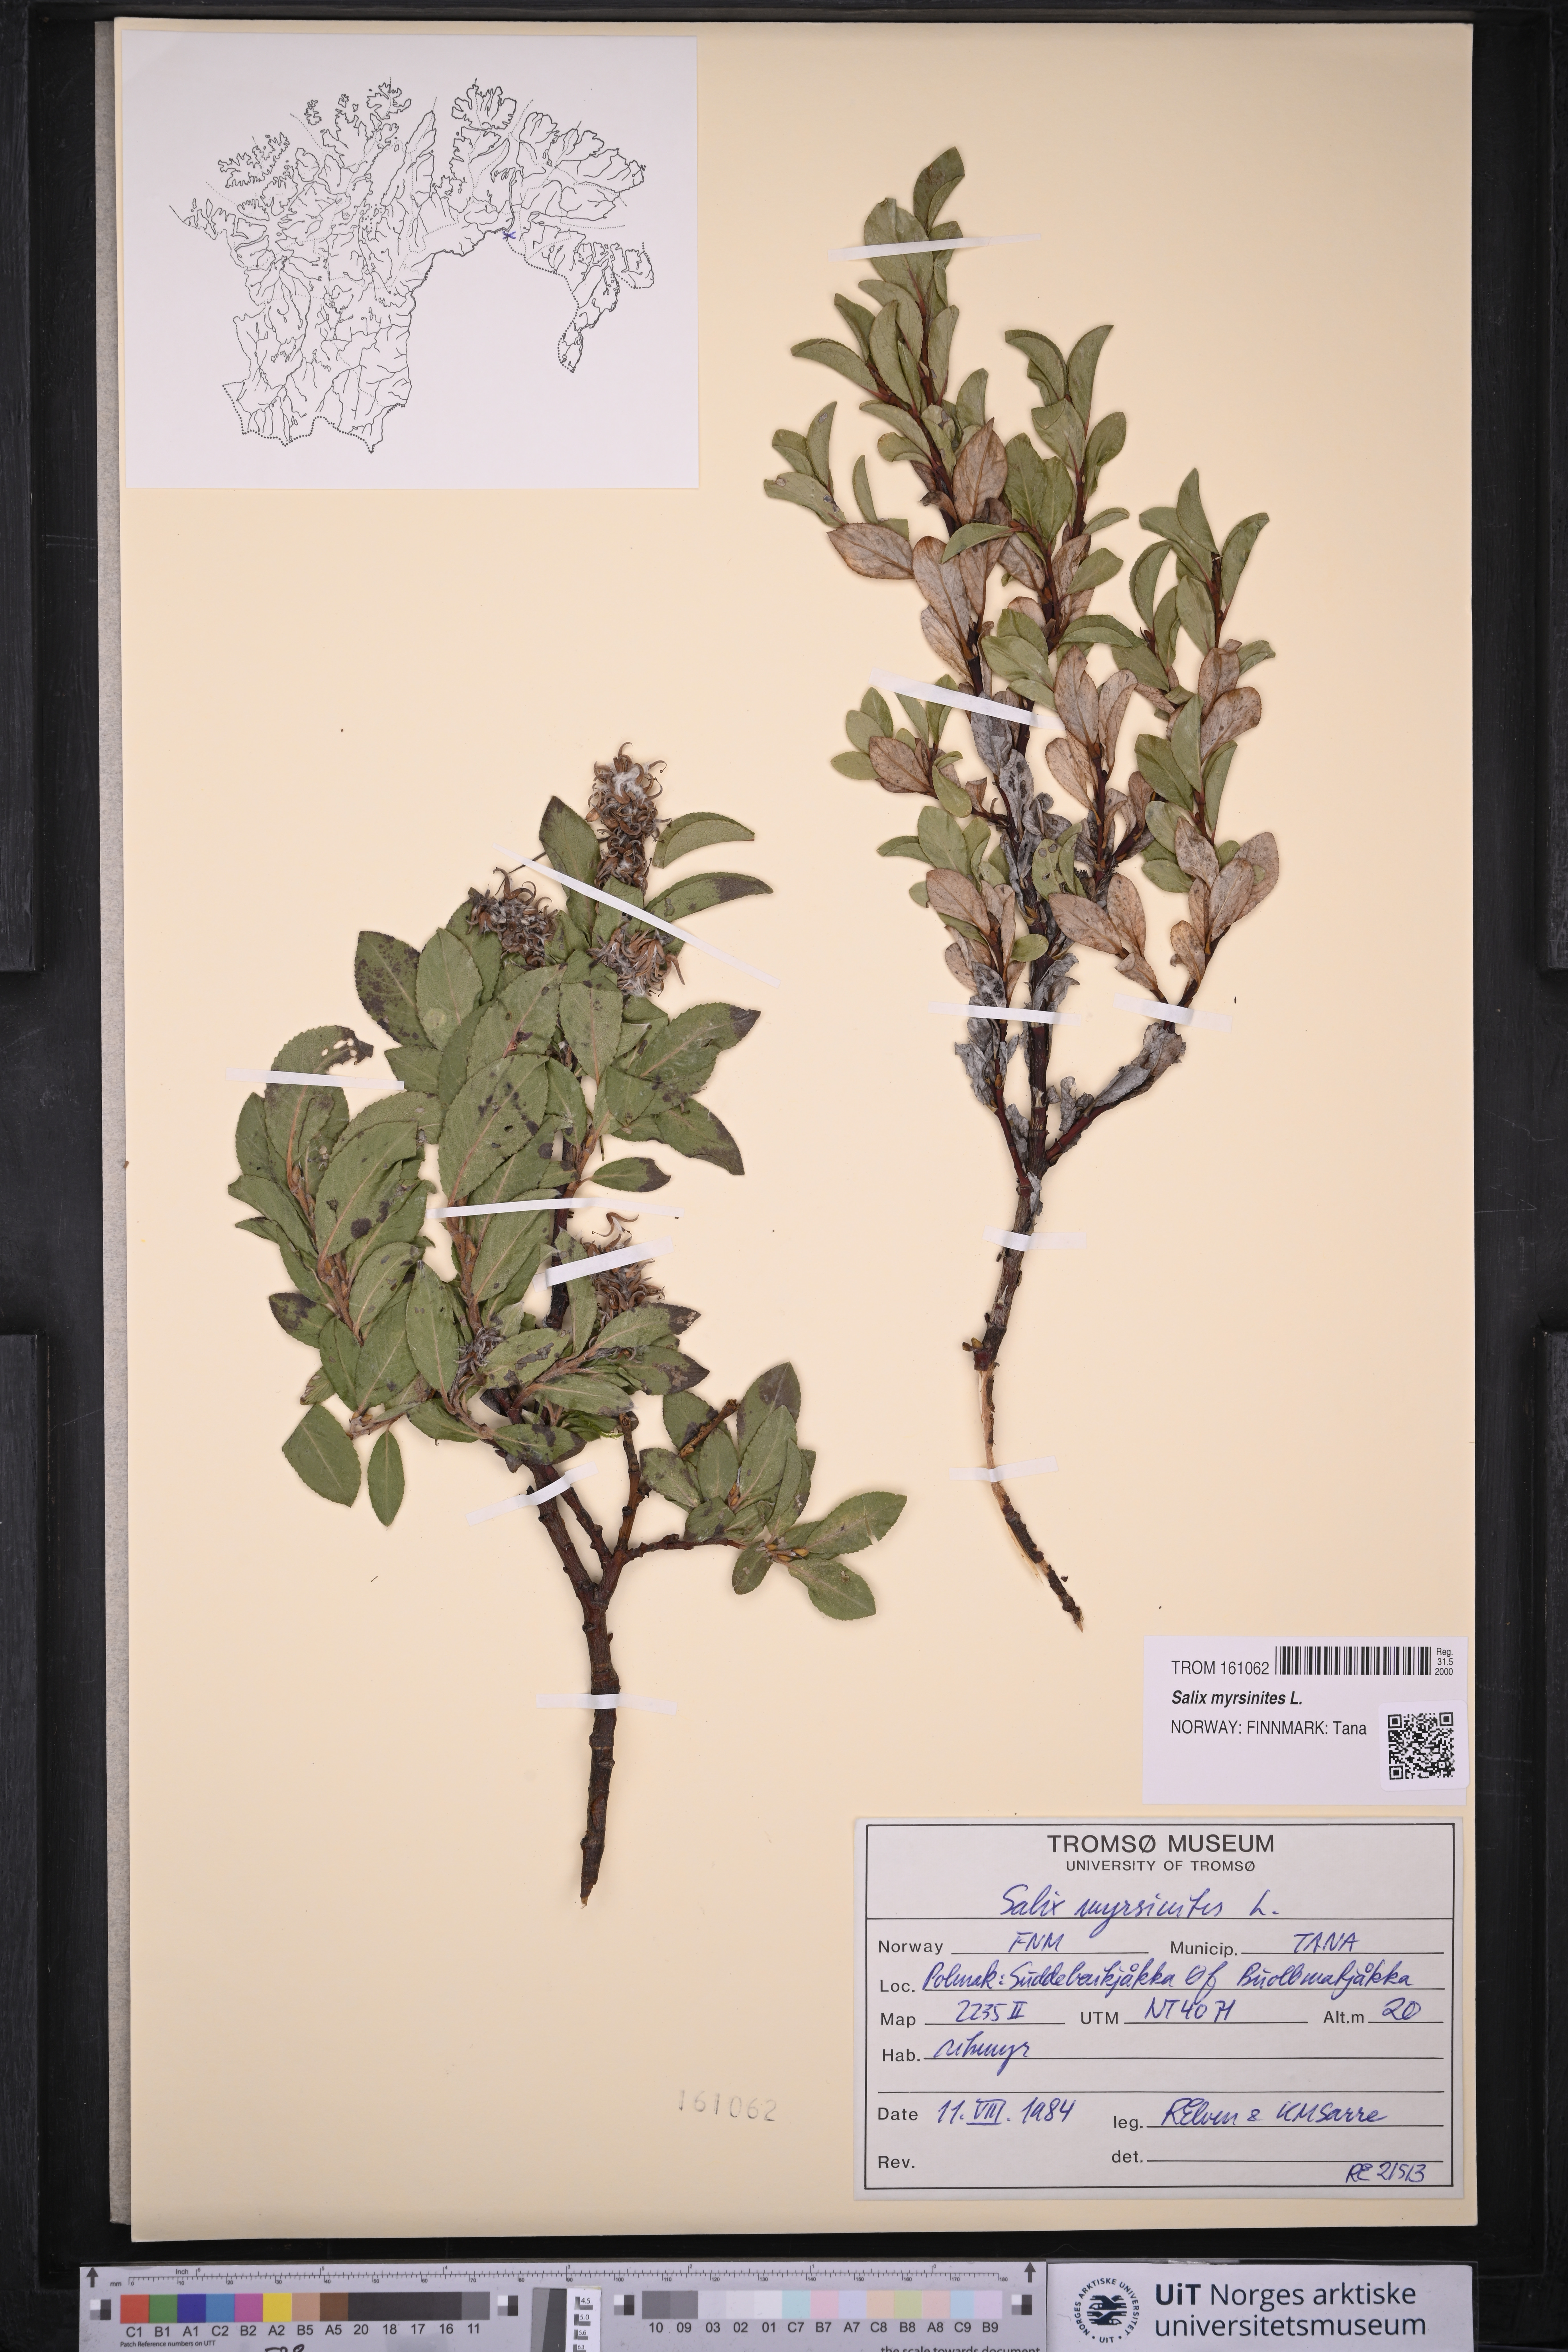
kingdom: Plantae
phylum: Tracheophyta
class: Magnoliopsida
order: Malpighiales
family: Salicaceae
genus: Salix
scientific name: Salix myrsinites
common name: Myrtle willow
